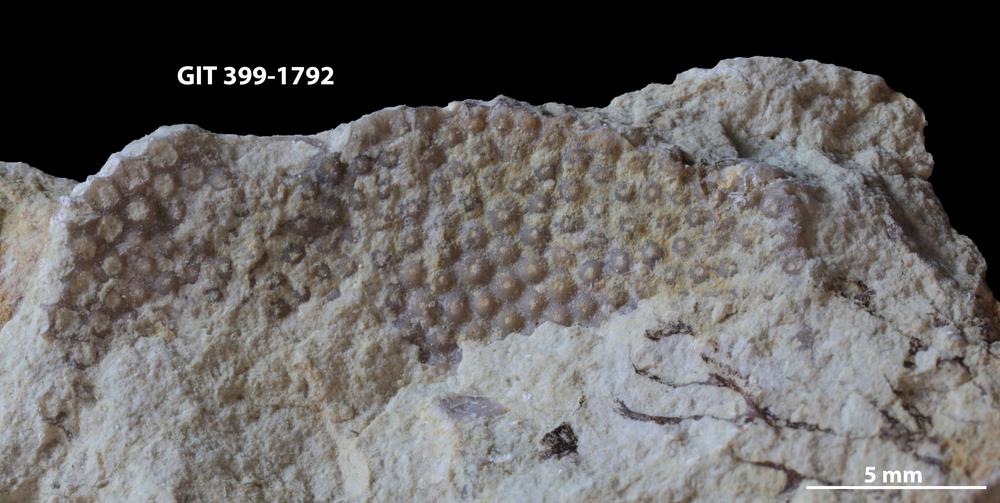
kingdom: Plantae
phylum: Chlorophyta
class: Ulvophyceae
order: Cyclocrinales
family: Cyclocrinaceae
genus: Mastopora
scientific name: Mastopora concava
